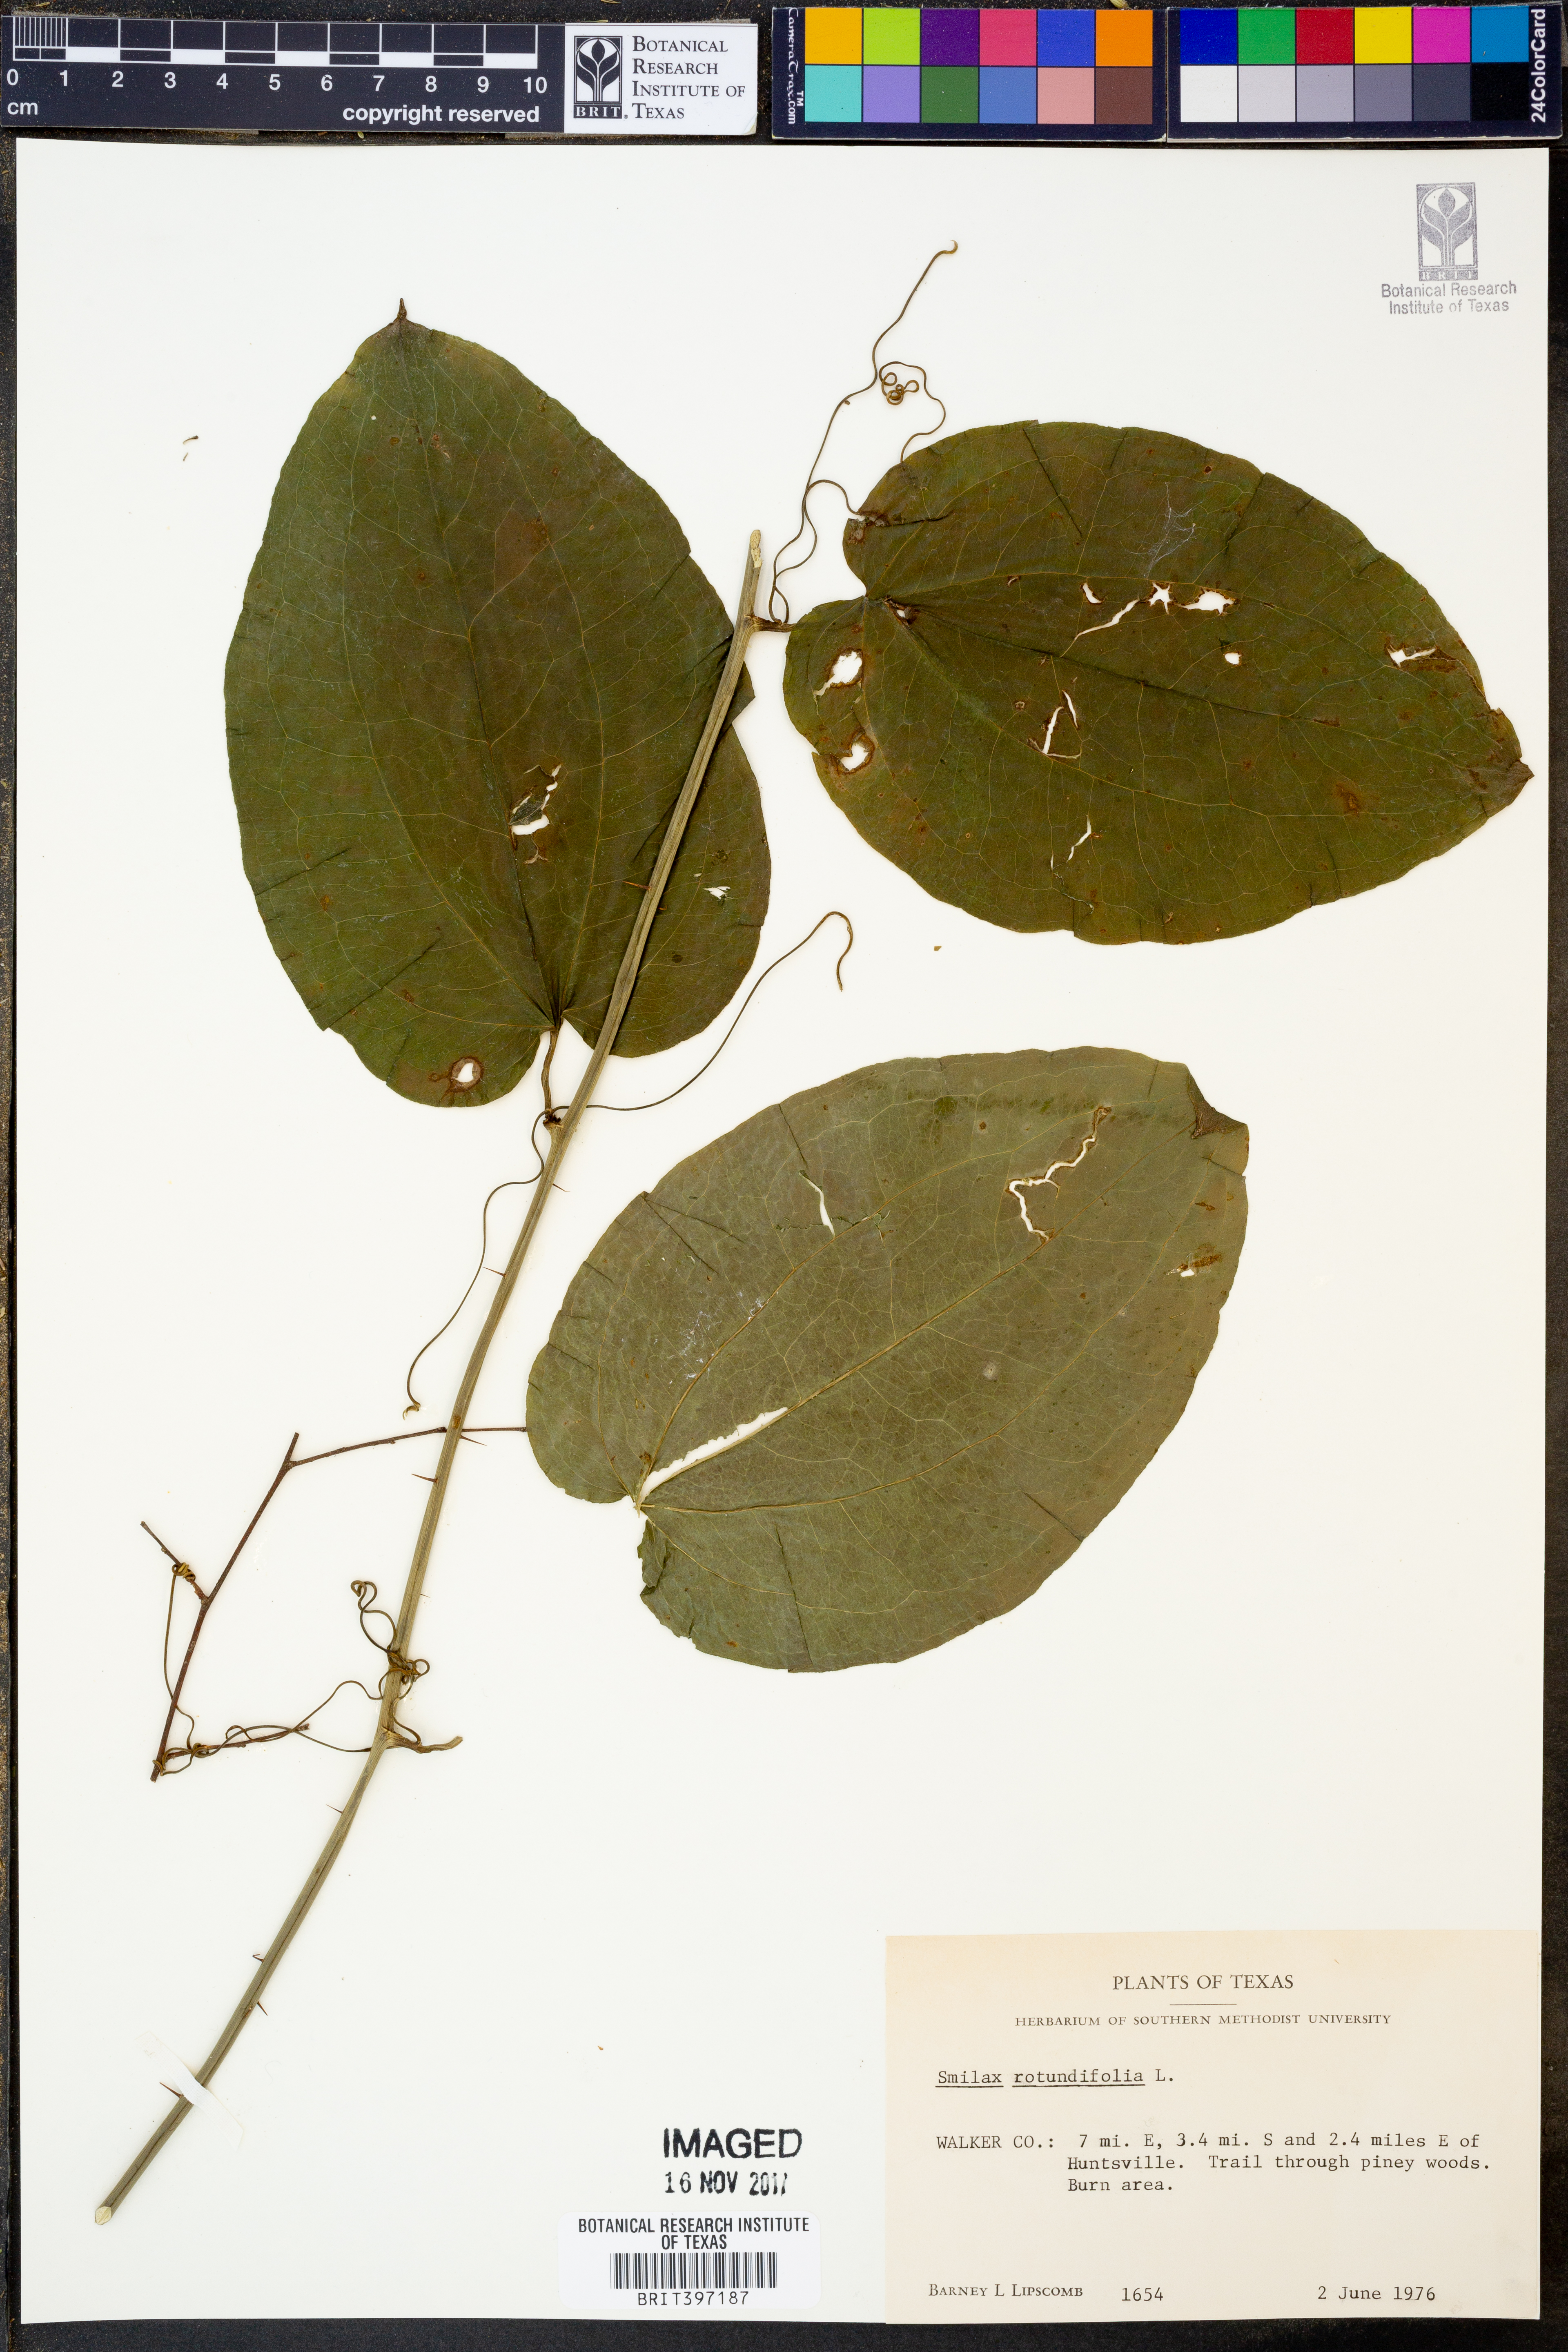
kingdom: Plantae
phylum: Tracheophyta
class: Liliopsida
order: Liliales
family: Smilacaceae
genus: Smilax
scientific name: Smilax rotundifolia
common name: Bullbriar
